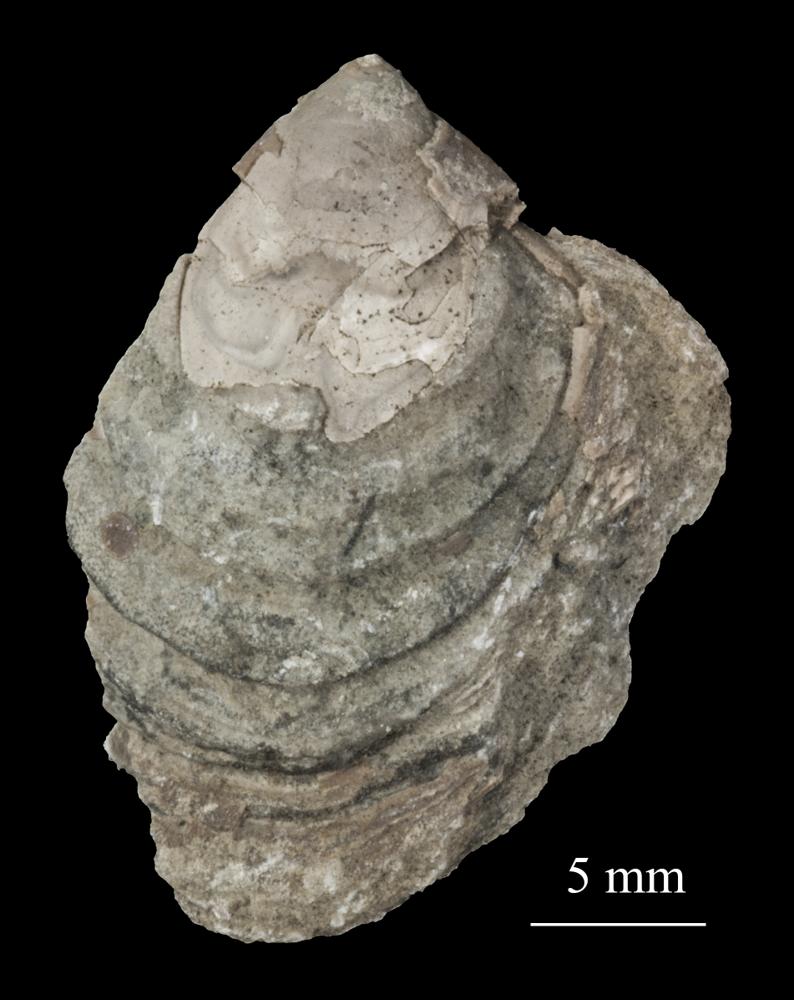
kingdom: Animalia
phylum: Brachiopoda
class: Lingulata
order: Siphonotretida
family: Siphonotretidae
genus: Siphonotreta
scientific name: Siphonotreta
